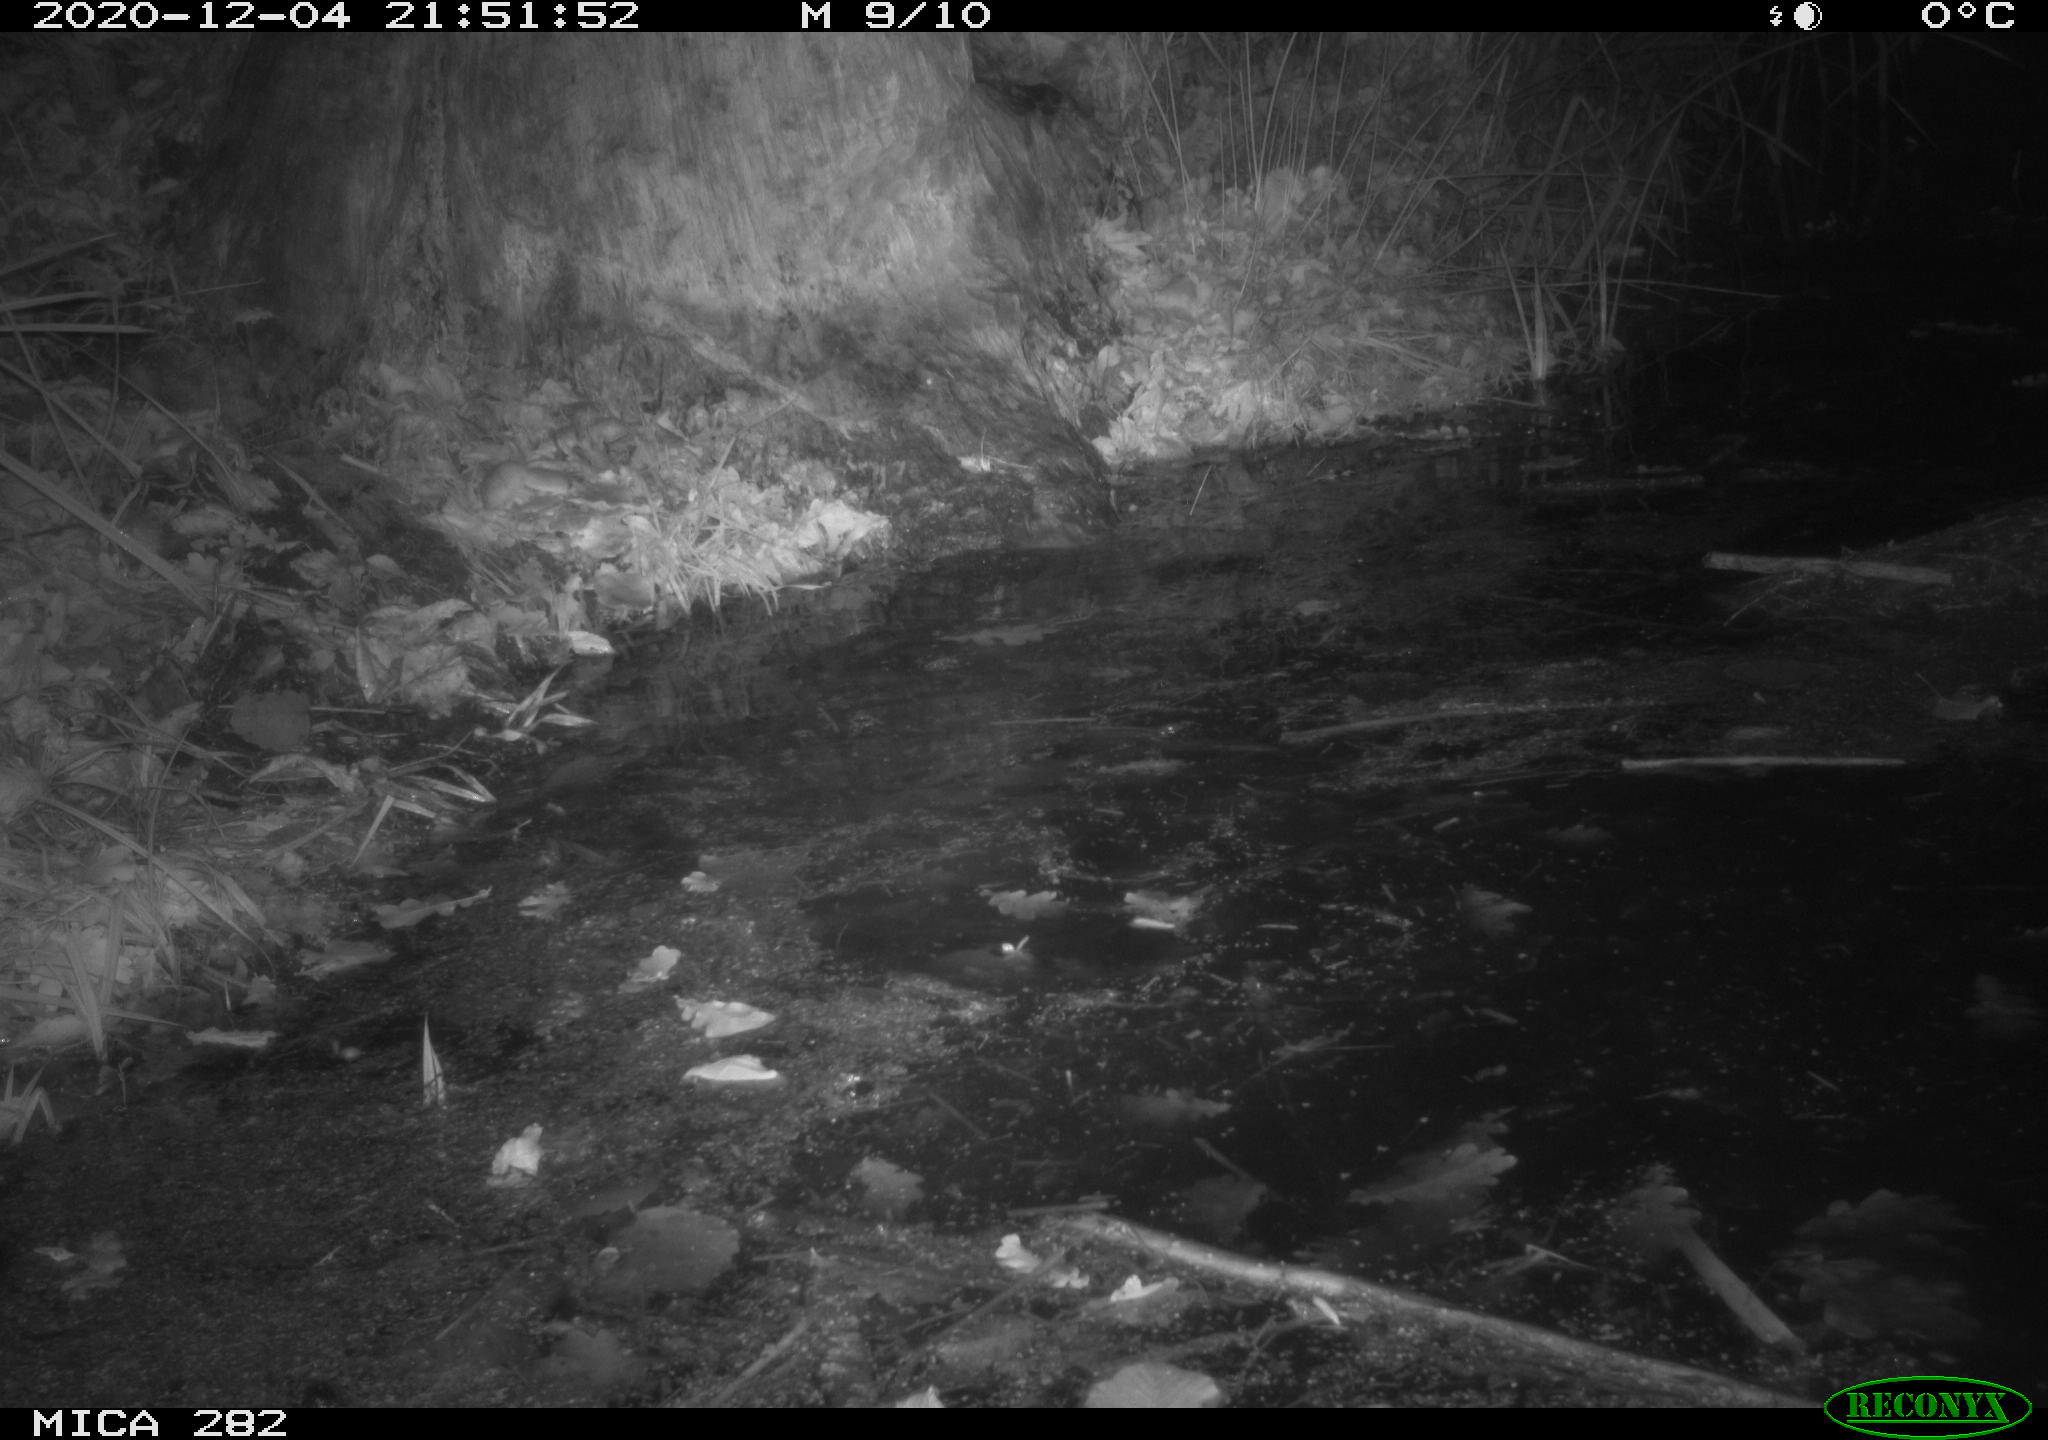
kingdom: Animalia
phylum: Chordata
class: Mammalia
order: Rodentia
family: Castoridae
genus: Castor
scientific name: Castor fiber
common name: Eurasian beaver
